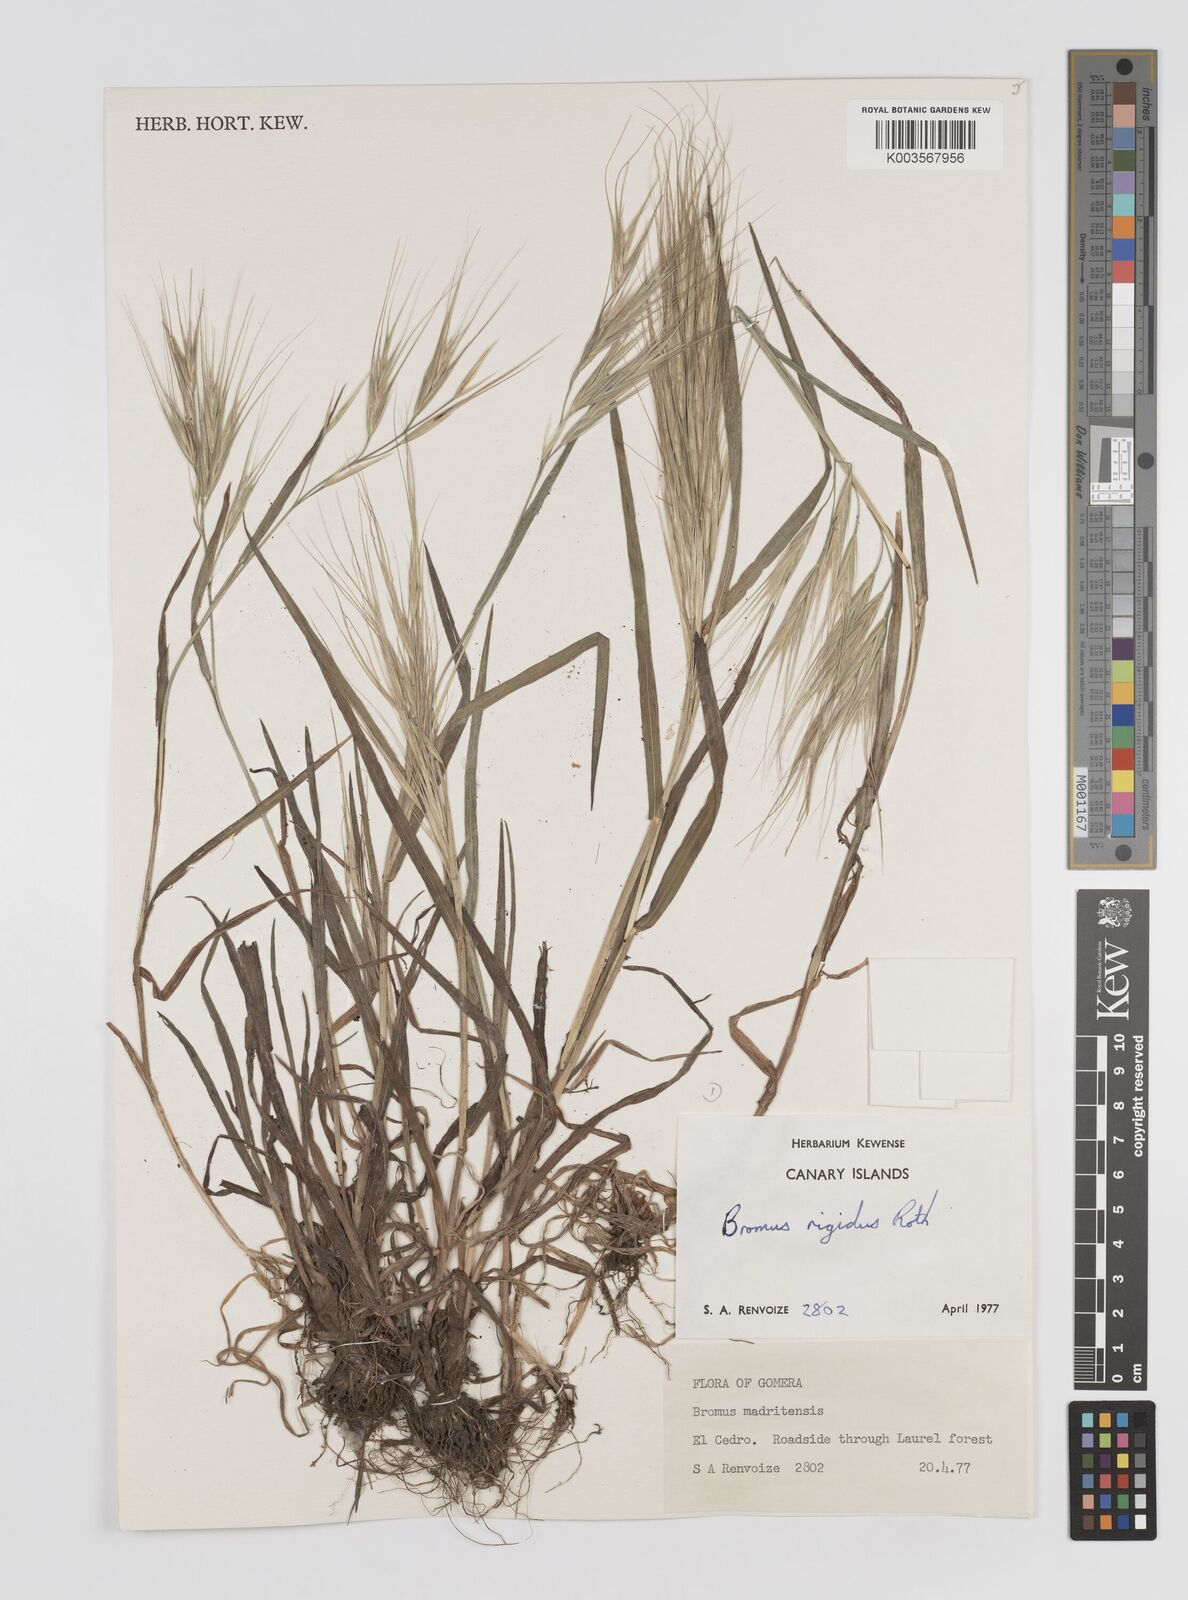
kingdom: Plantae
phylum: Tracheophyta
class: Liliopsida
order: Poales
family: Poaceae
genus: Bromus
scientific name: Bromus diandrus
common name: Ripgut brome
